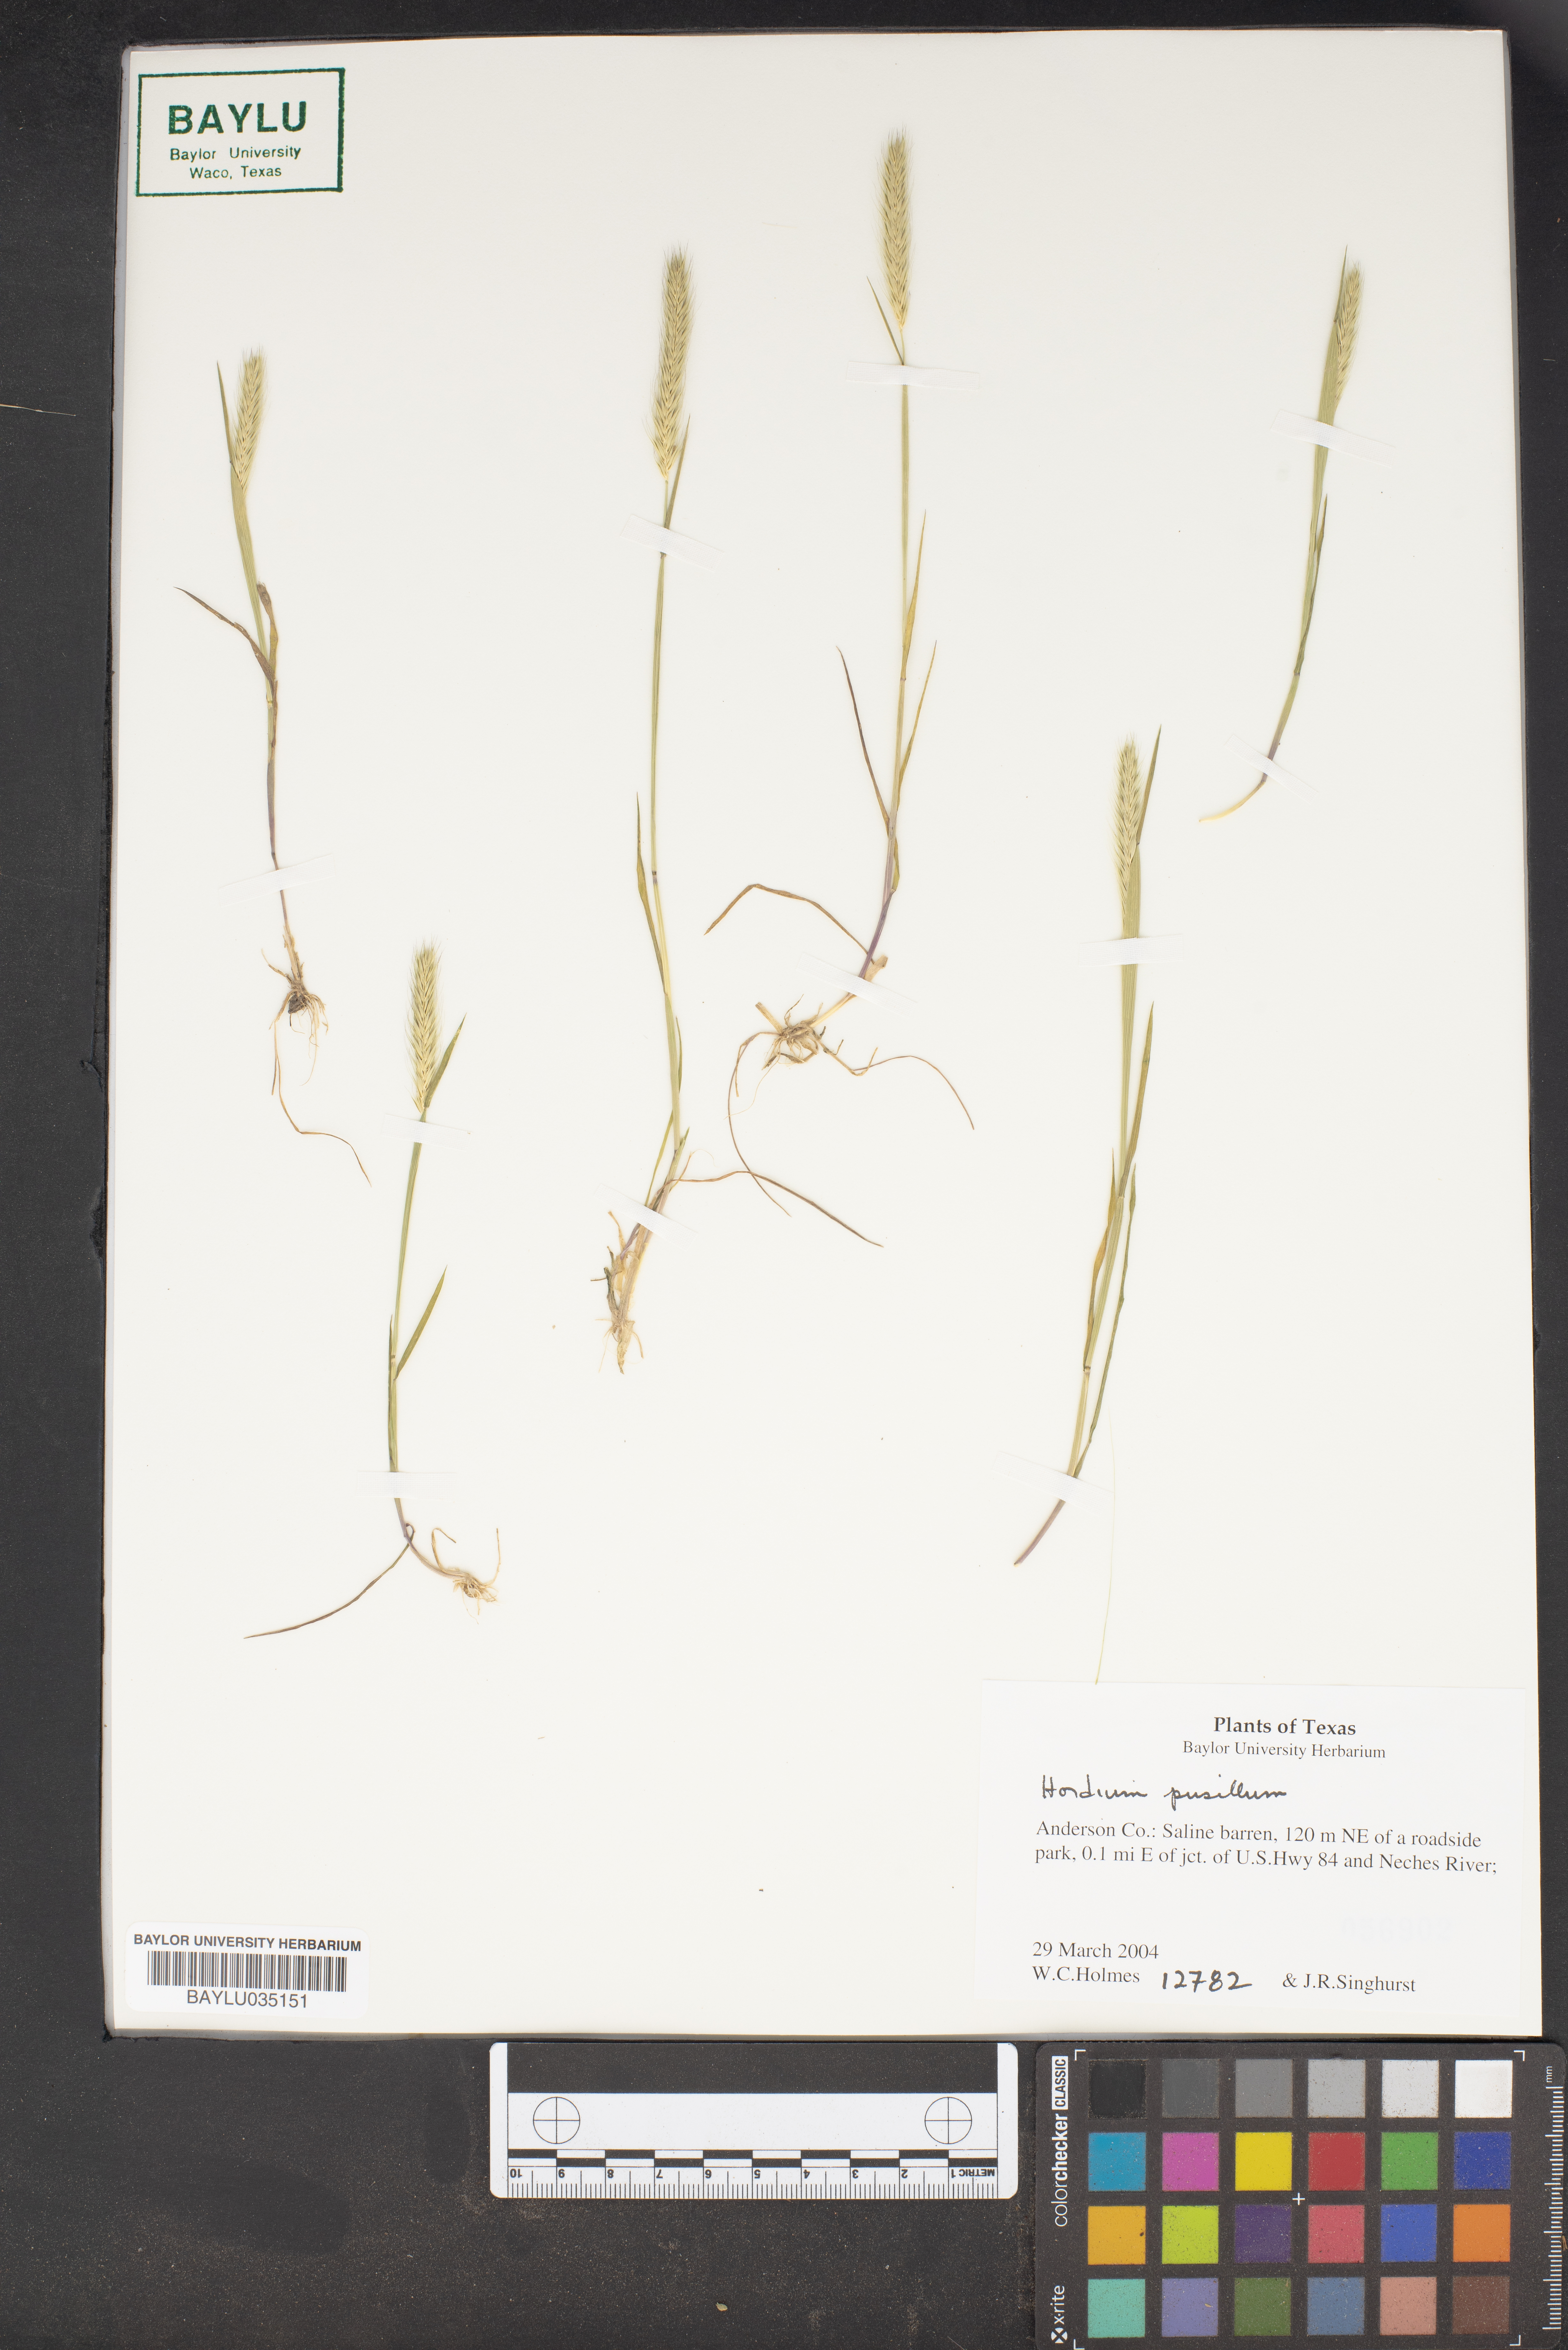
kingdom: Plantae
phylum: Tracheophyta
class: Liliopsida
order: Poales
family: Poaceae
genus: Hordeum
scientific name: Hordeum pusillum
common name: Little barley
